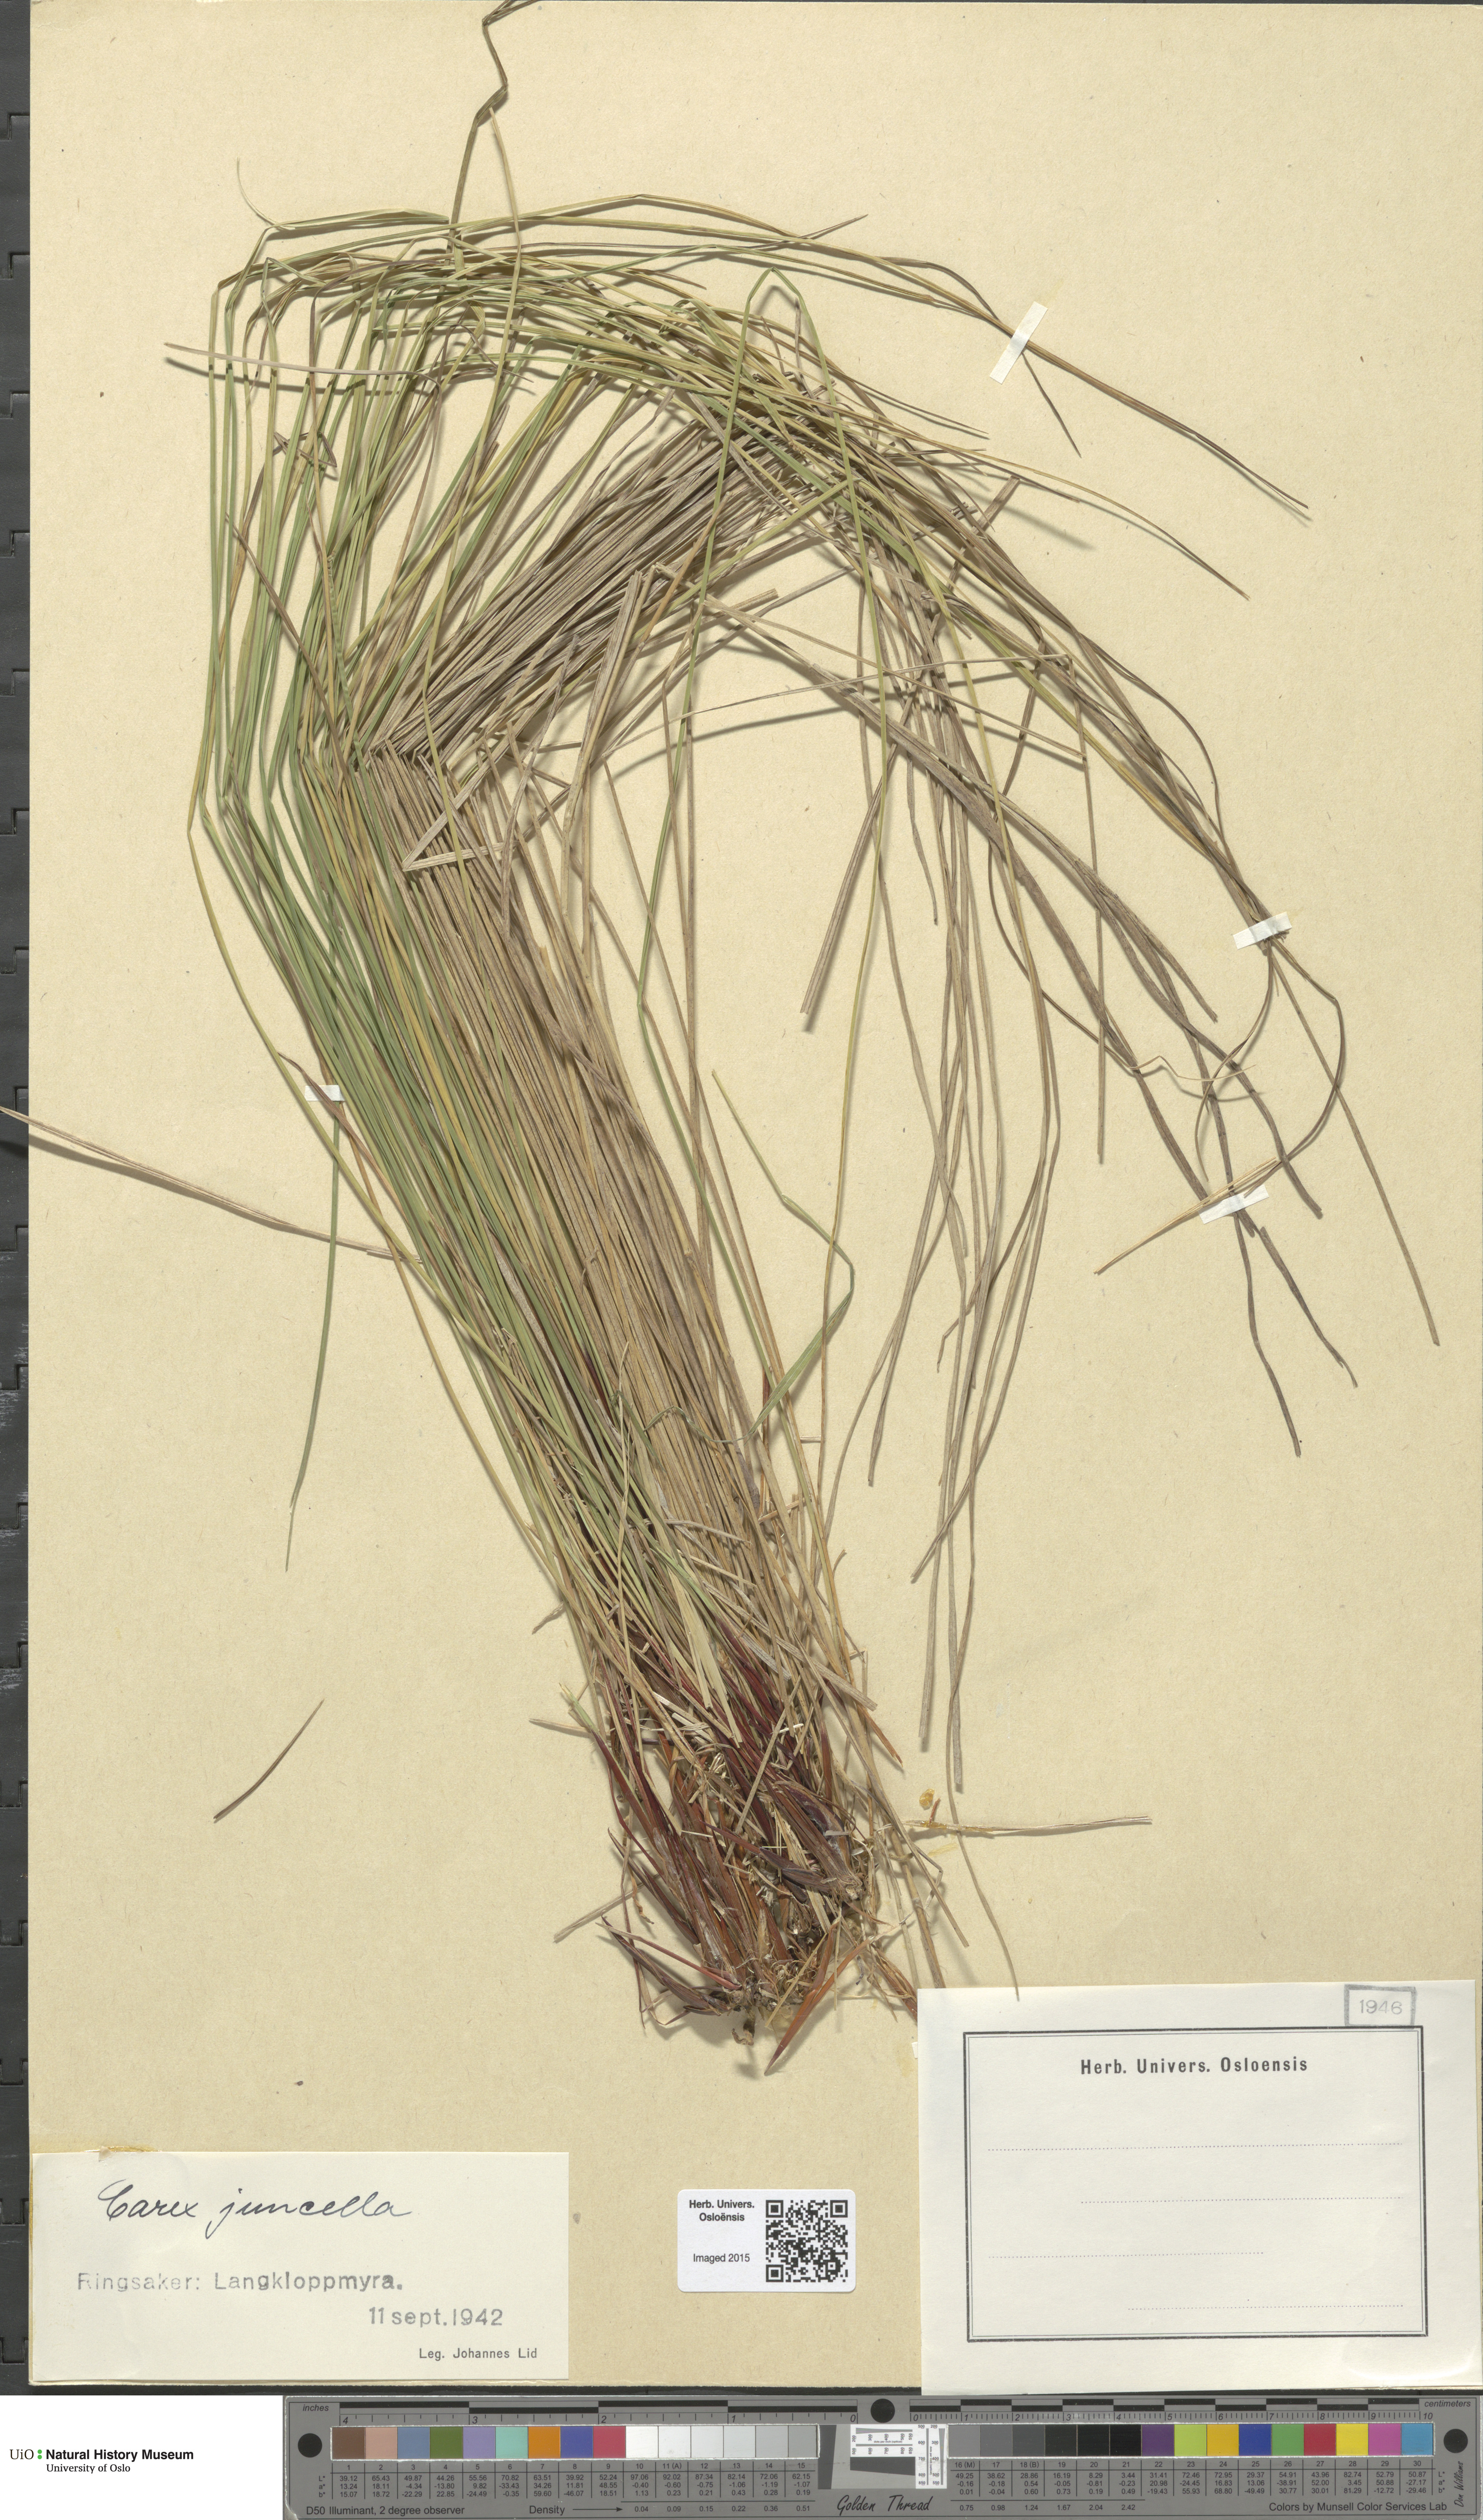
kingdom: Plantae
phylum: Tracheophyta
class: Liliopsida
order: Poales
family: Cyperaceae
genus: Carex
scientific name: Carex nigra
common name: Common sedge
